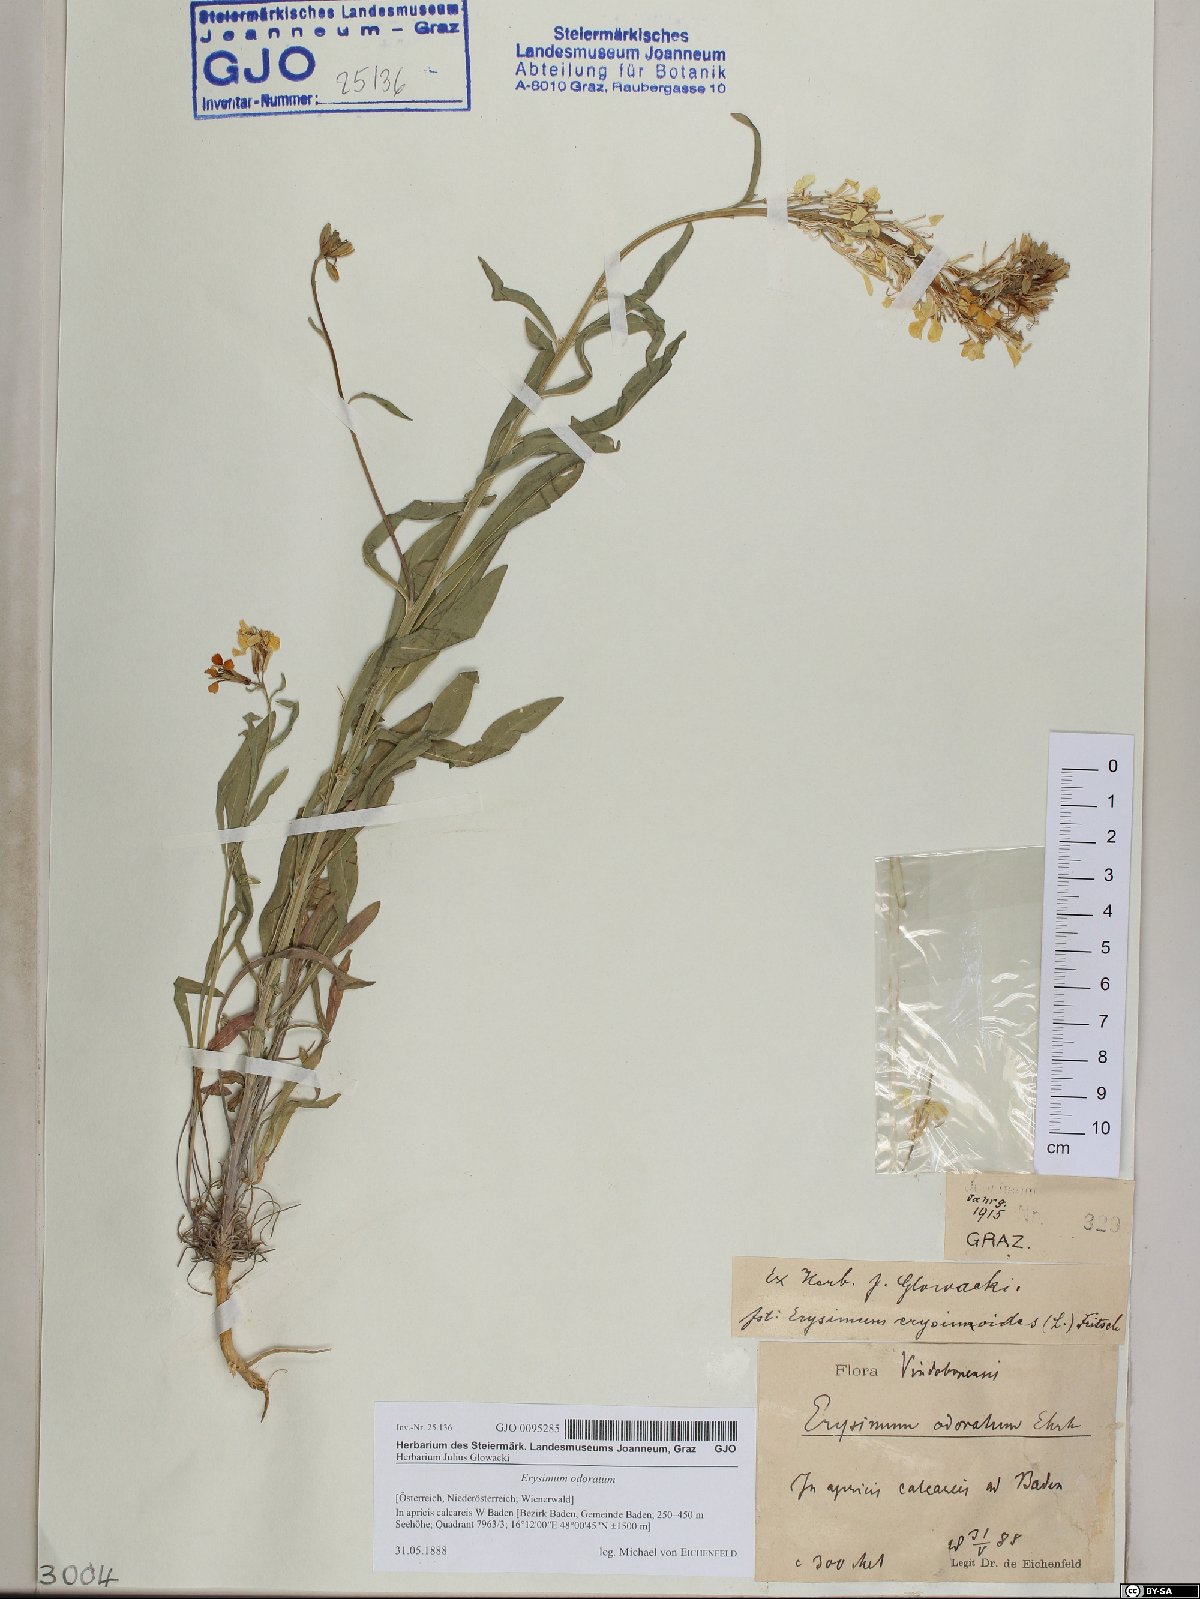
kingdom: Plantae
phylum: Tracheophyta
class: Magnoliopsida
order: Brassicales
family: Brassicaceae
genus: Erysimum
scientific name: Erysimum odoratum
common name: Smelly wallflower
